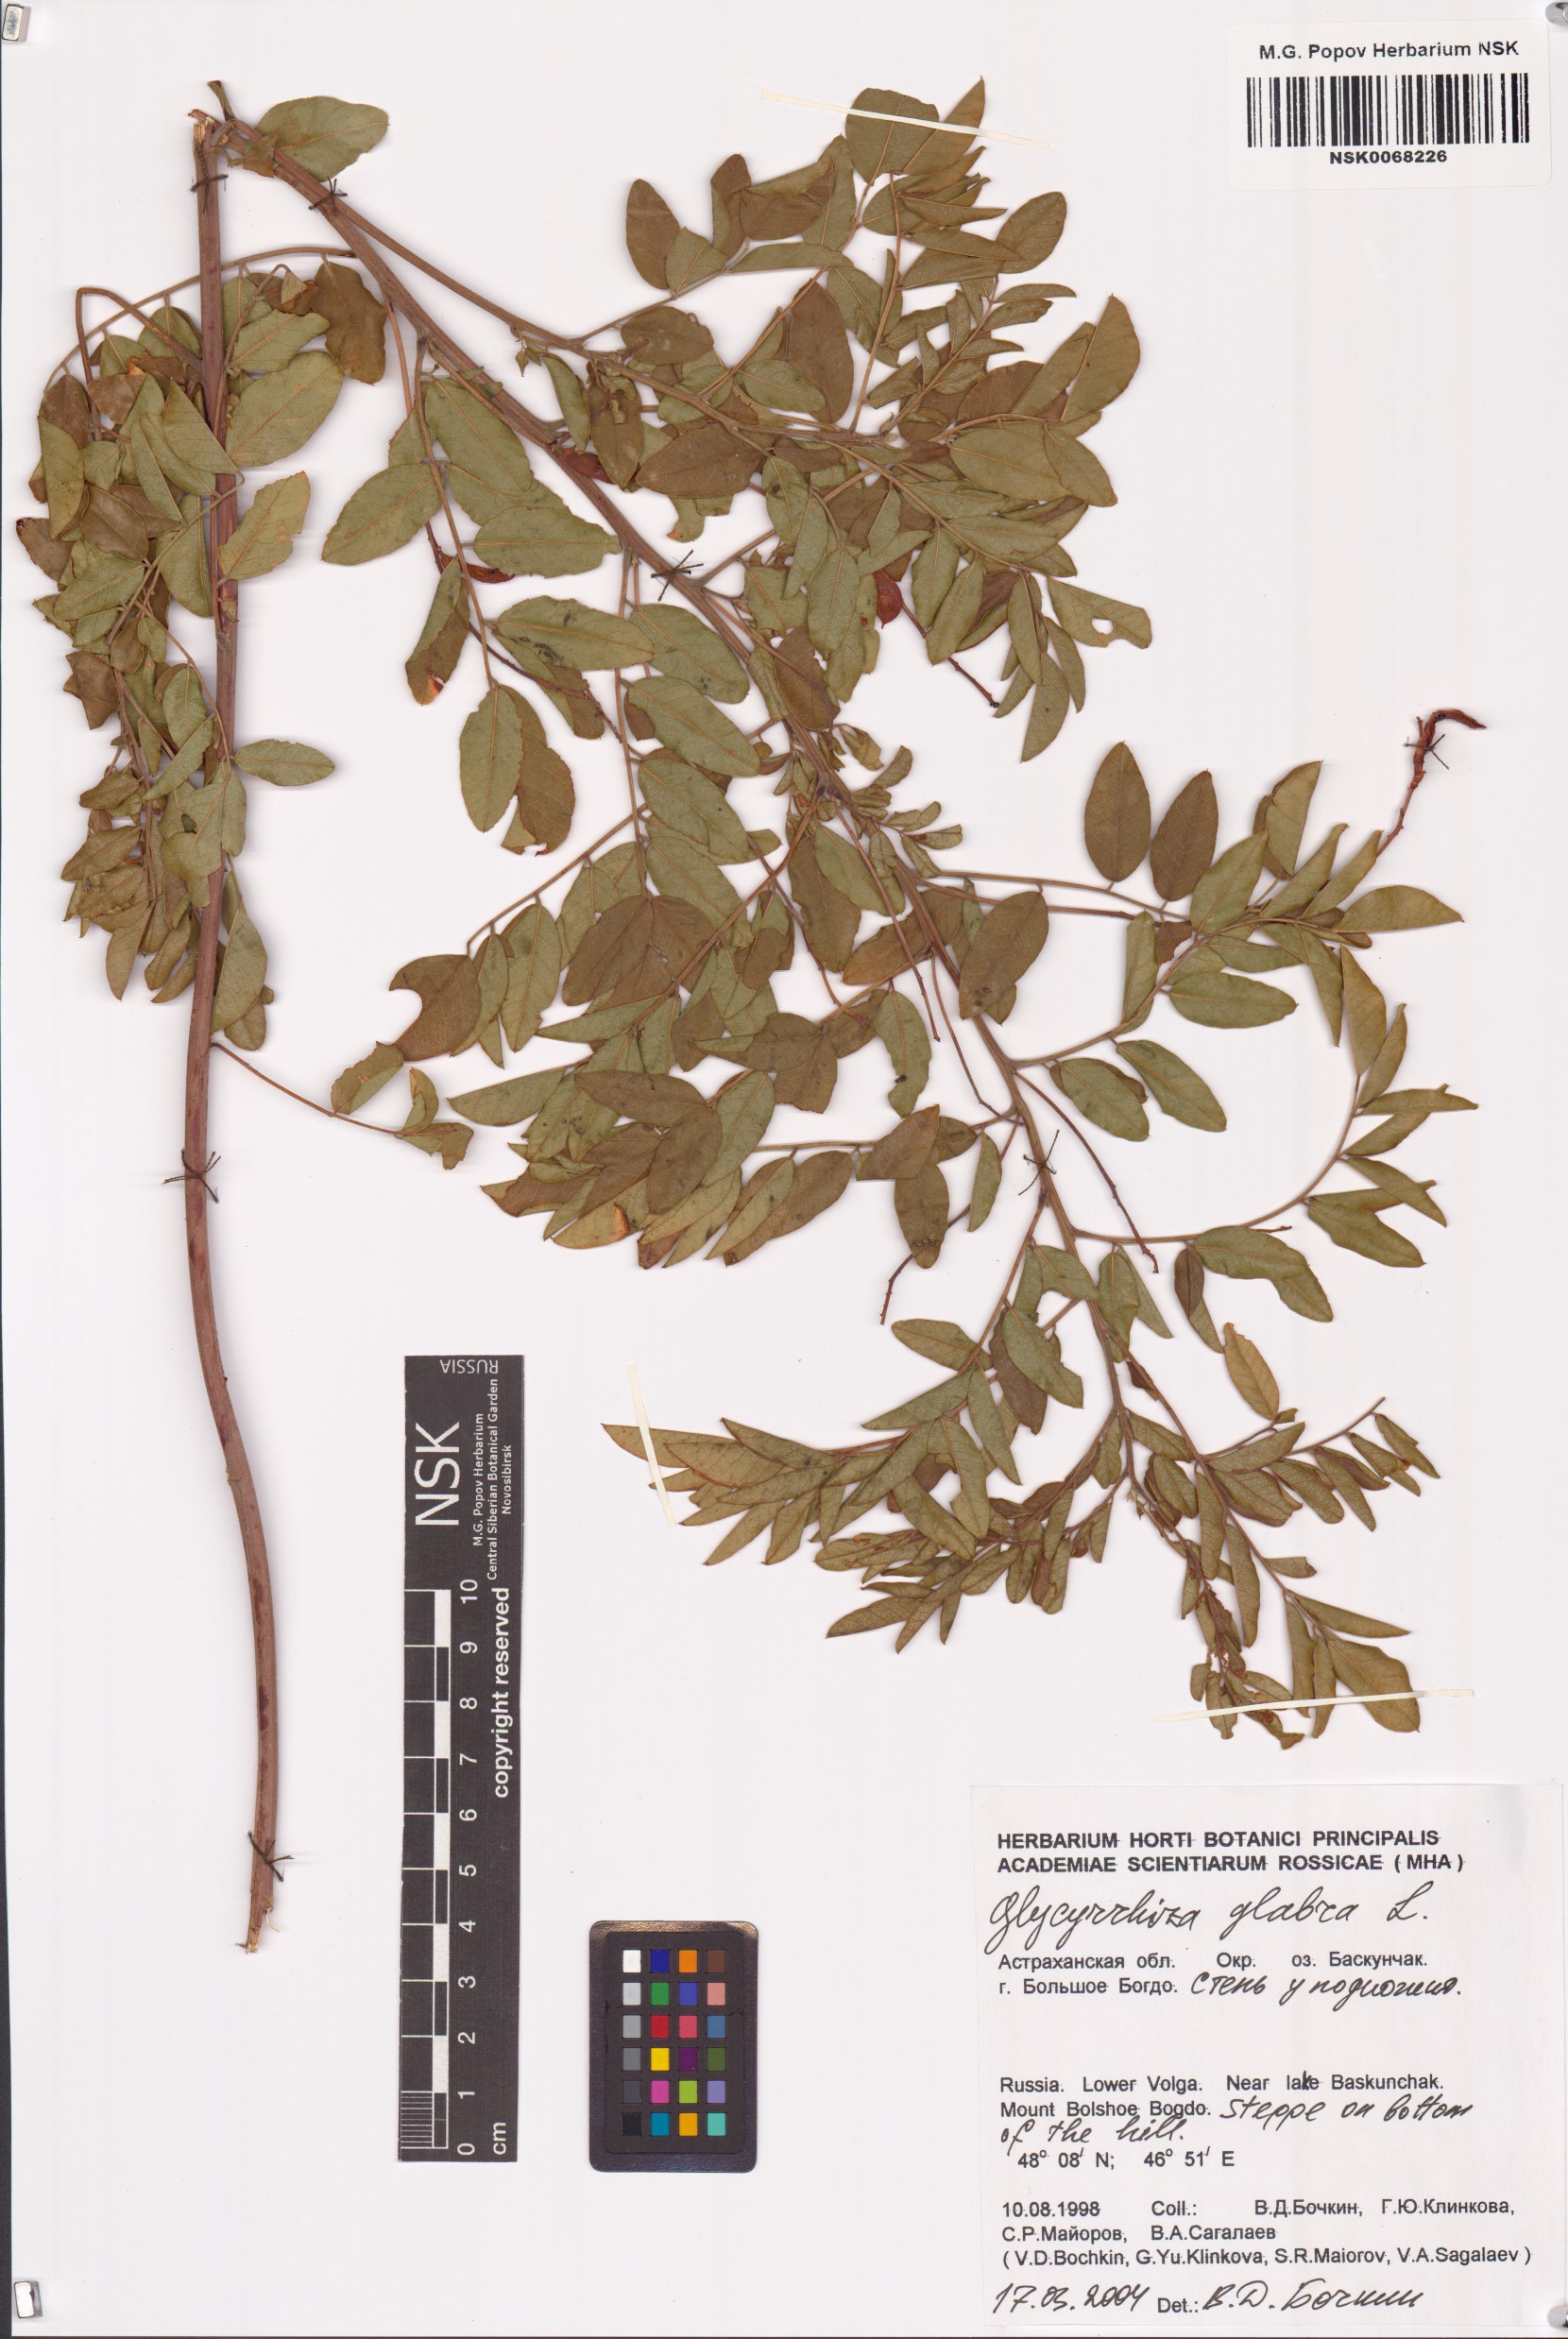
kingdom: Plantae
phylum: Tracheophyta
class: Magnoliopsida
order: Fabales
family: Fabaceae
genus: Glycyrrhiza
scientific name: Glycyrrhiza glabra
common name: Liquorice
